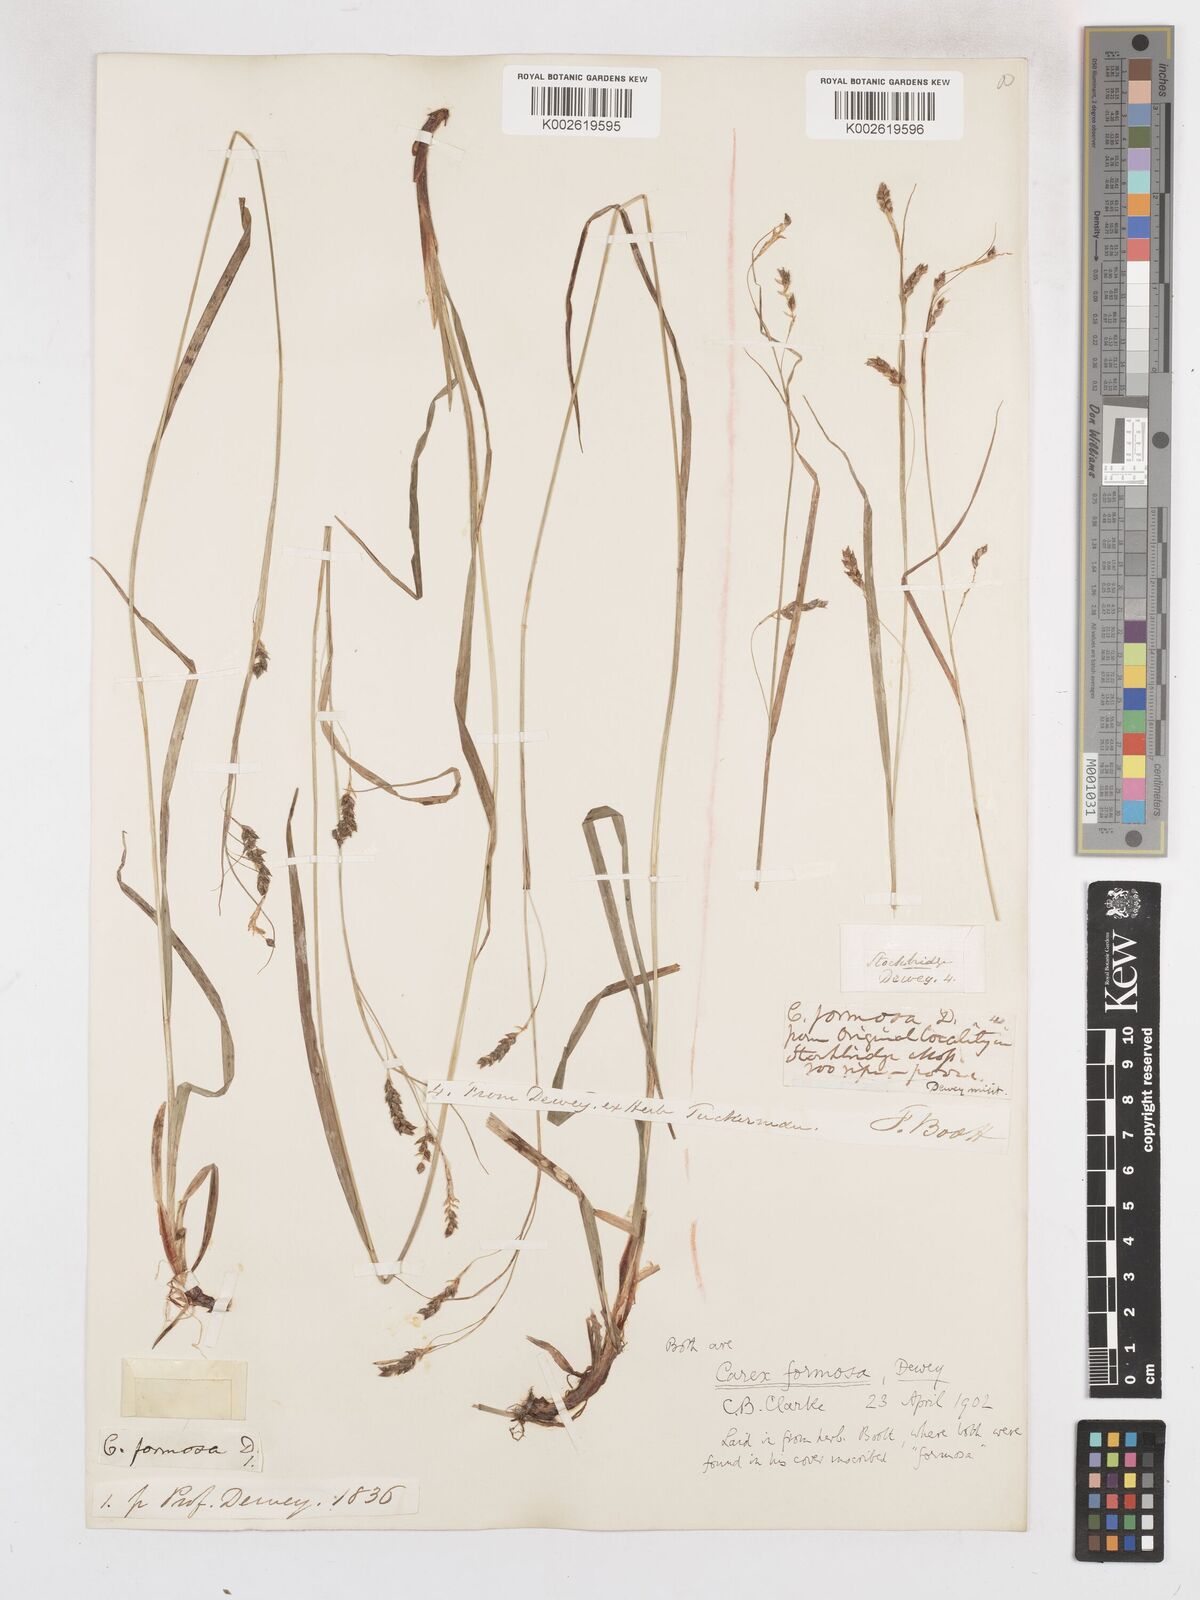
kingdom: Plantae
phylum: Tracheophyta
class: Liliopsida
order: Poales
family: Cyperaceae
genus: Carex
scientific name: Carex formosa
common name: Awnless graceful sedge
